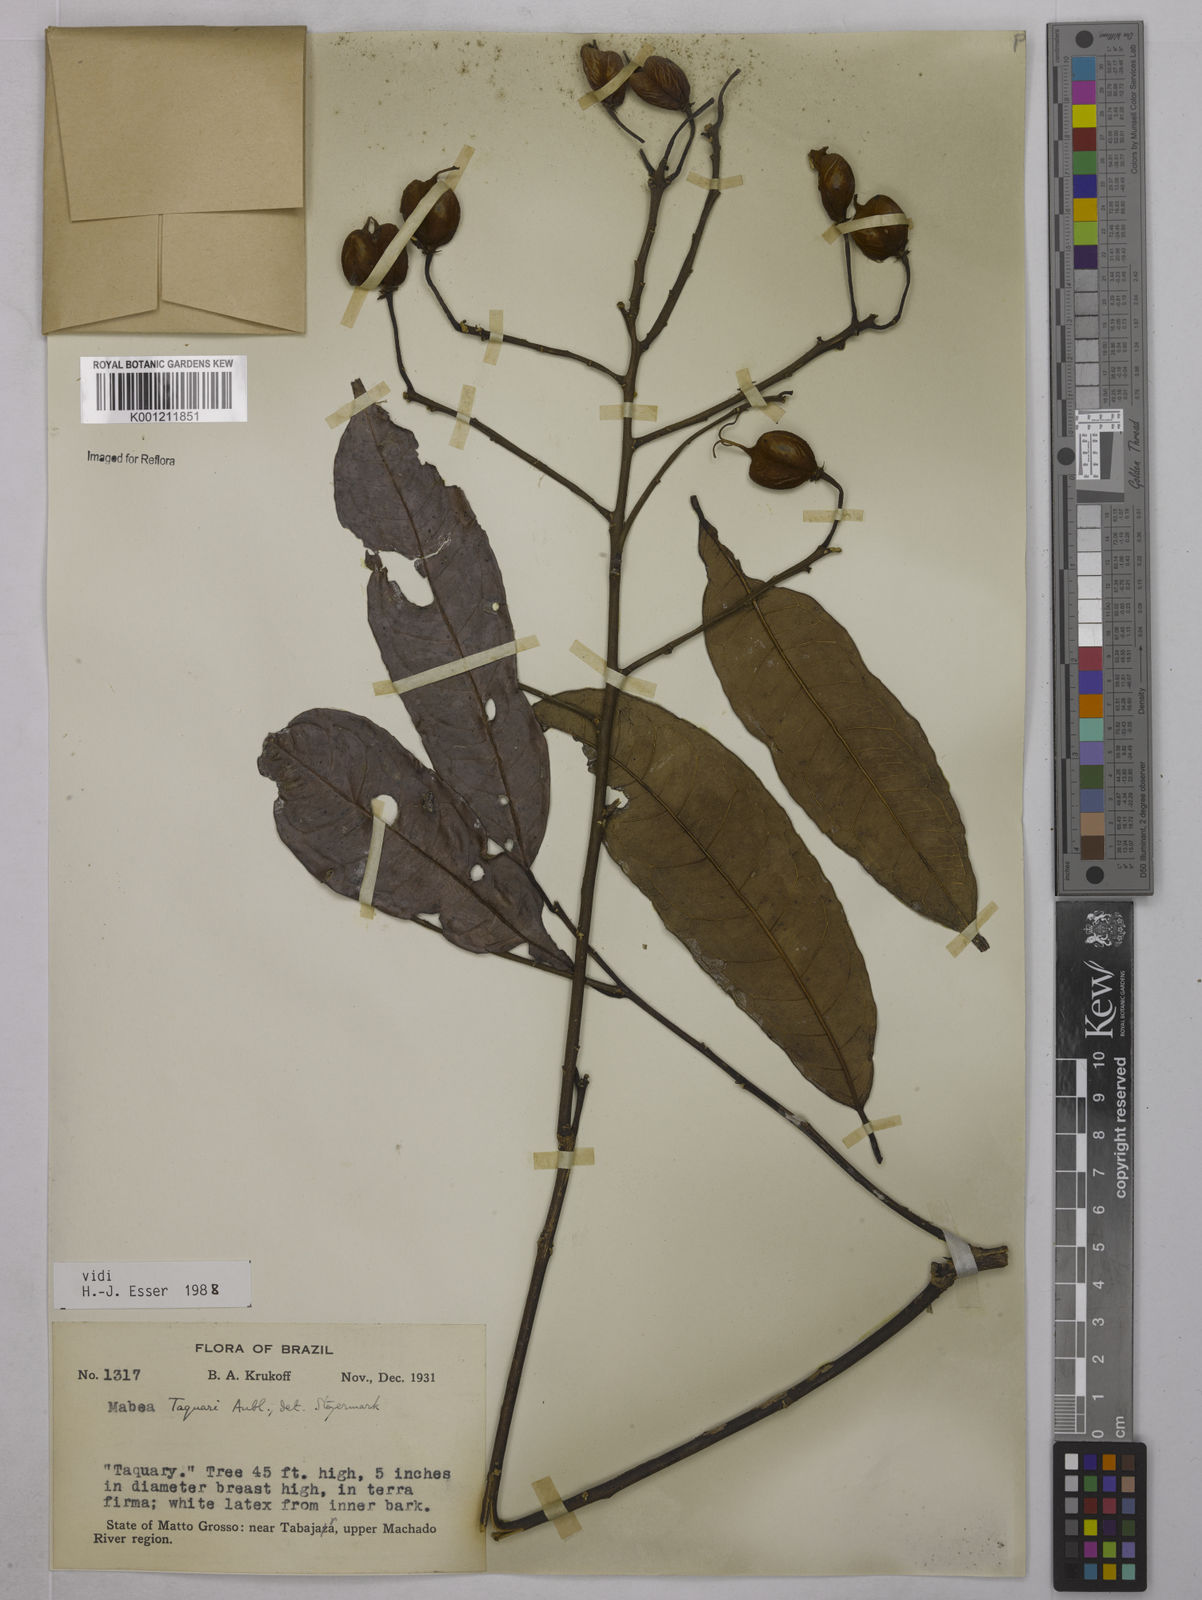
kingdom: Plantae
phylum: Tracheophyta
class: Magnoliopsida
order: Malpighiales
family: Euphorbiaceae
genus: Mabea
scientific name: Mabea taquari
